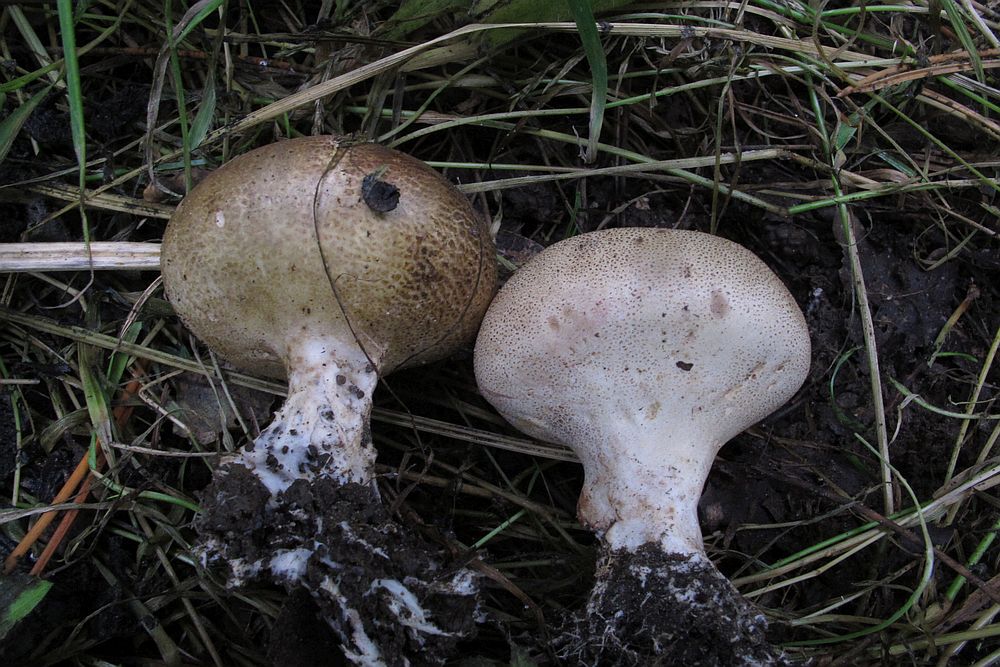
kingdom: Fungi
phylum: Basidiomycota
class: Agaricomycetes
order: Boletales
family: Sclerodermataceae
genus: Scleroderma
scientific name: Scleroderma verrucosum
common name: stilket bruskbold
